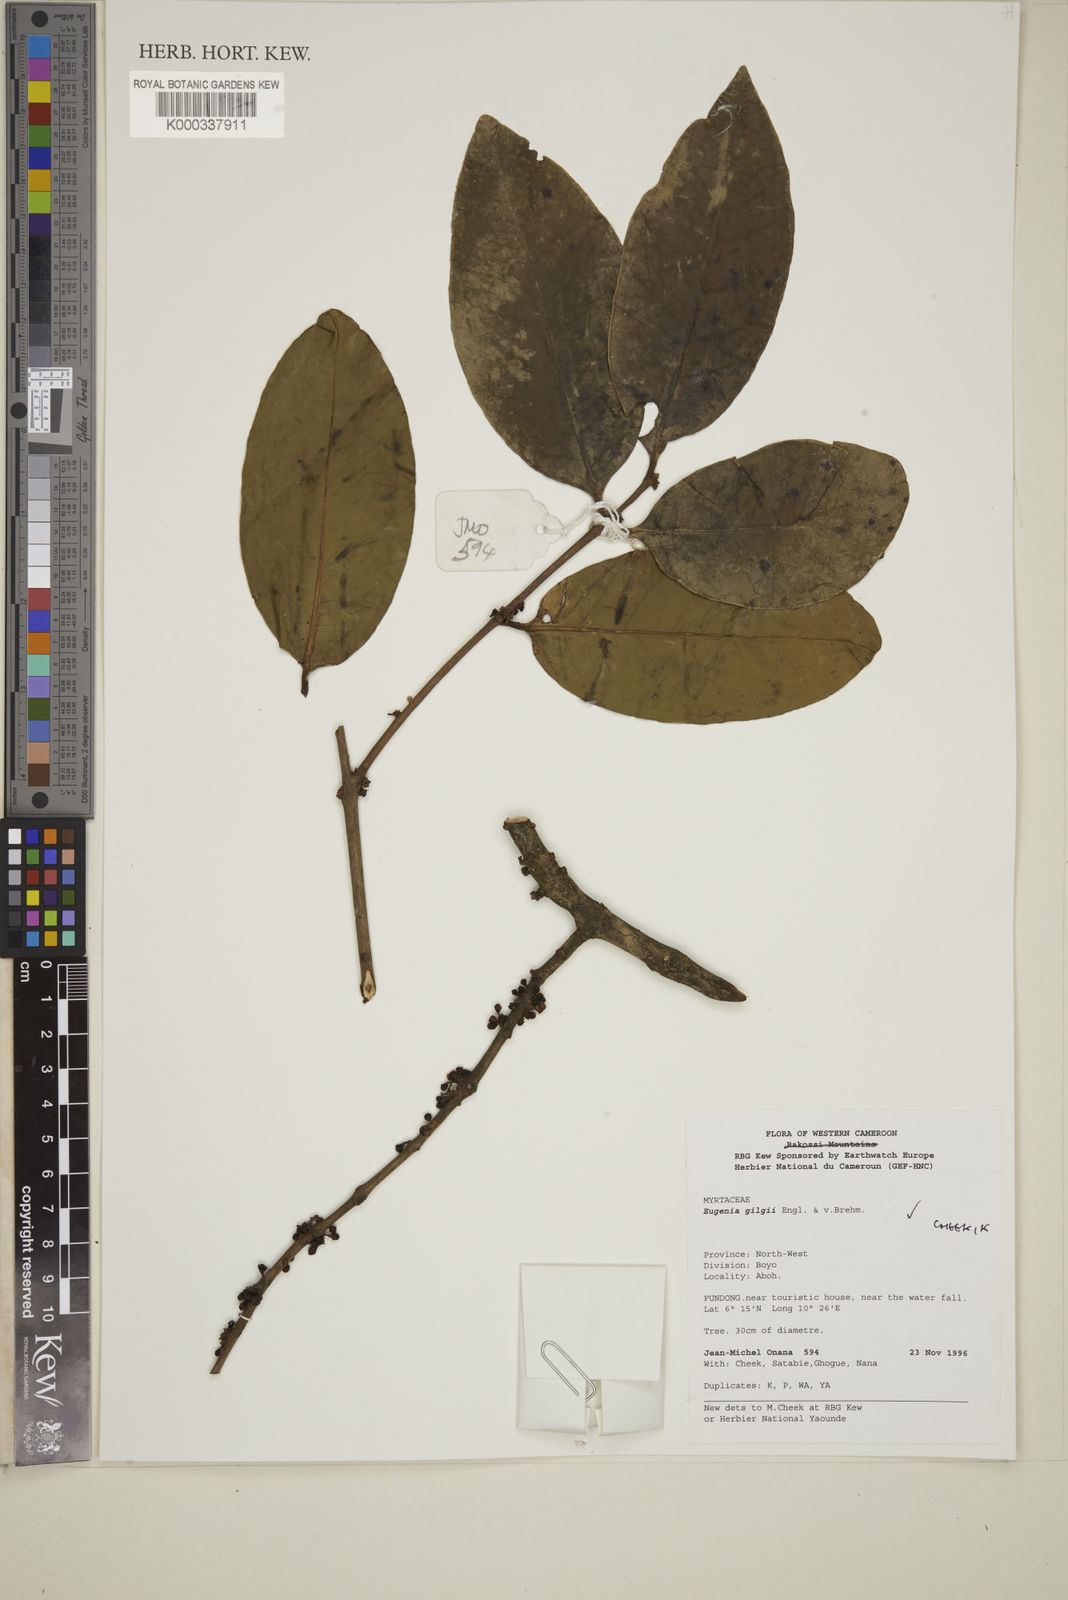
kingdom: Plantae
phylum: Tracheophyta
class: Magnoliopsida
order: Myrtales
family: Myrtaceae
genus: Eugenia
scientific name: Eugenia gilgii
